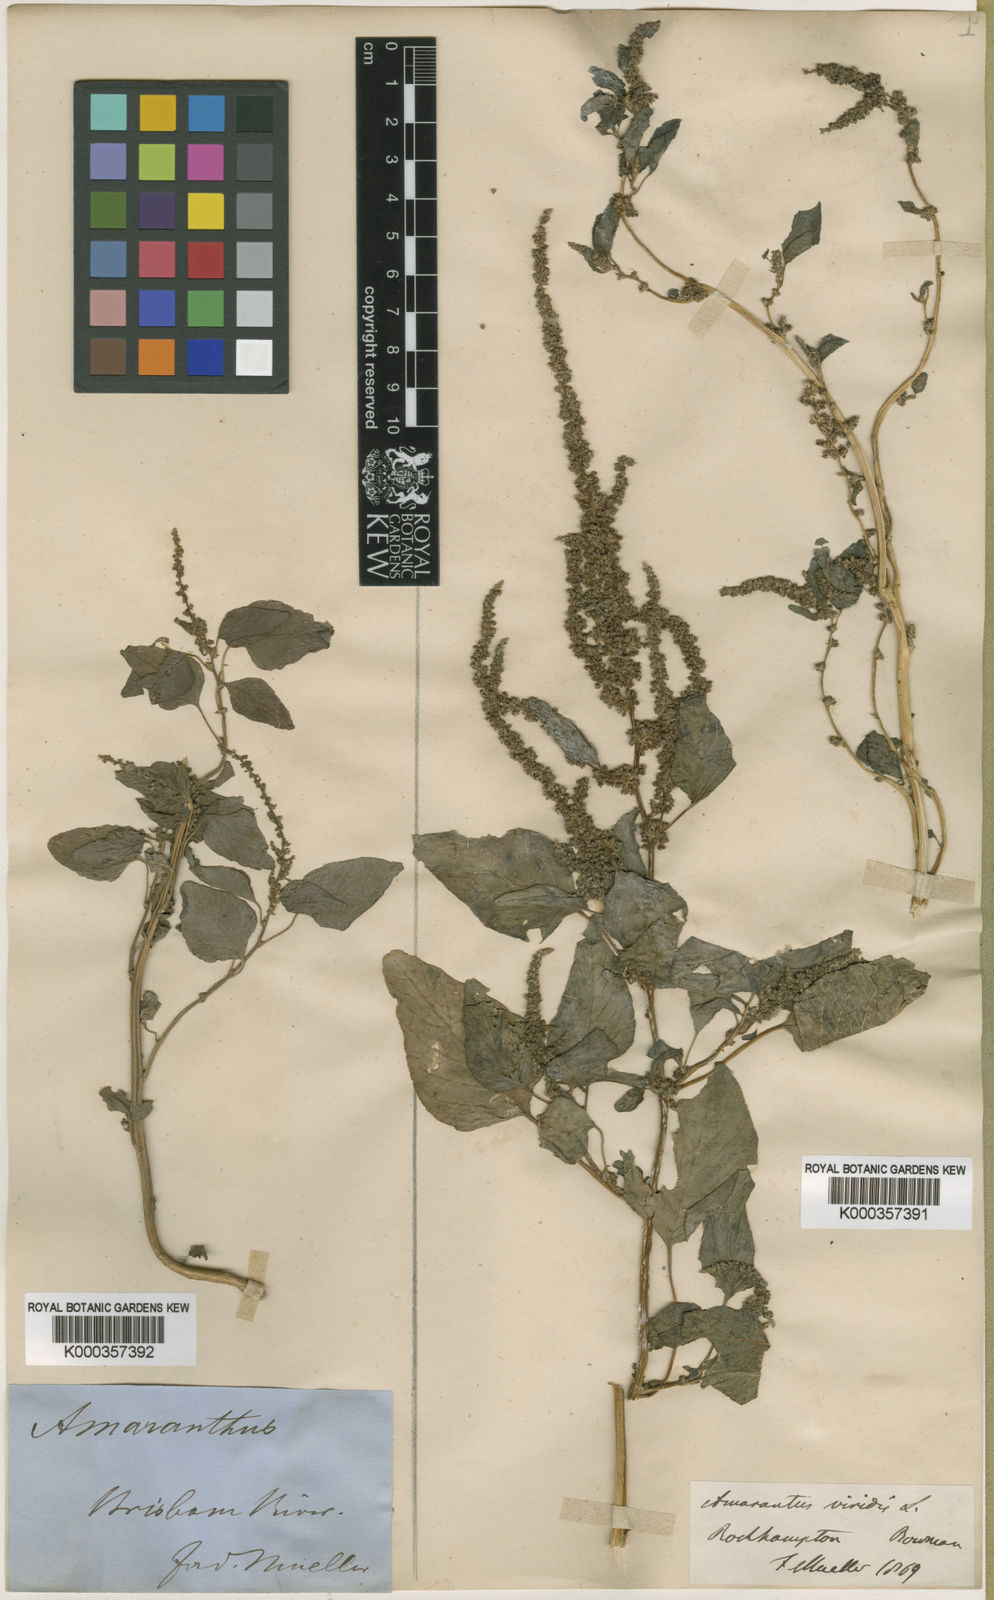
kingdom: Plantae
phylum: Tracheophyta
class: Magnoliopsida
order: Caryophyllales
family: Amaranthaceae
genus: Amaranthus
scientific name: Amaranthus viridis
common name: Slender amaranth
